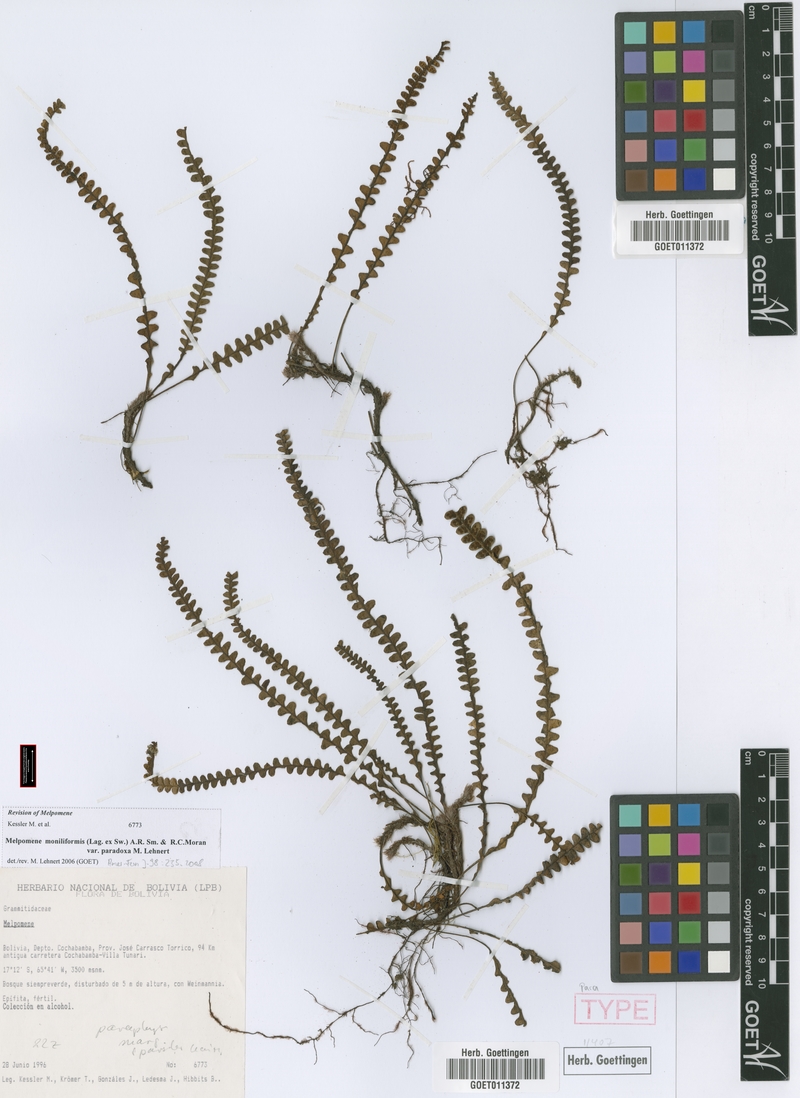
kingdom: Plantae
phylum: Tracheophyta
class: Polypodiopsida
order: Polypodiales
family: Polypodiaceae
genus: Melpomene
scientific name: Melpomene paradoxa
